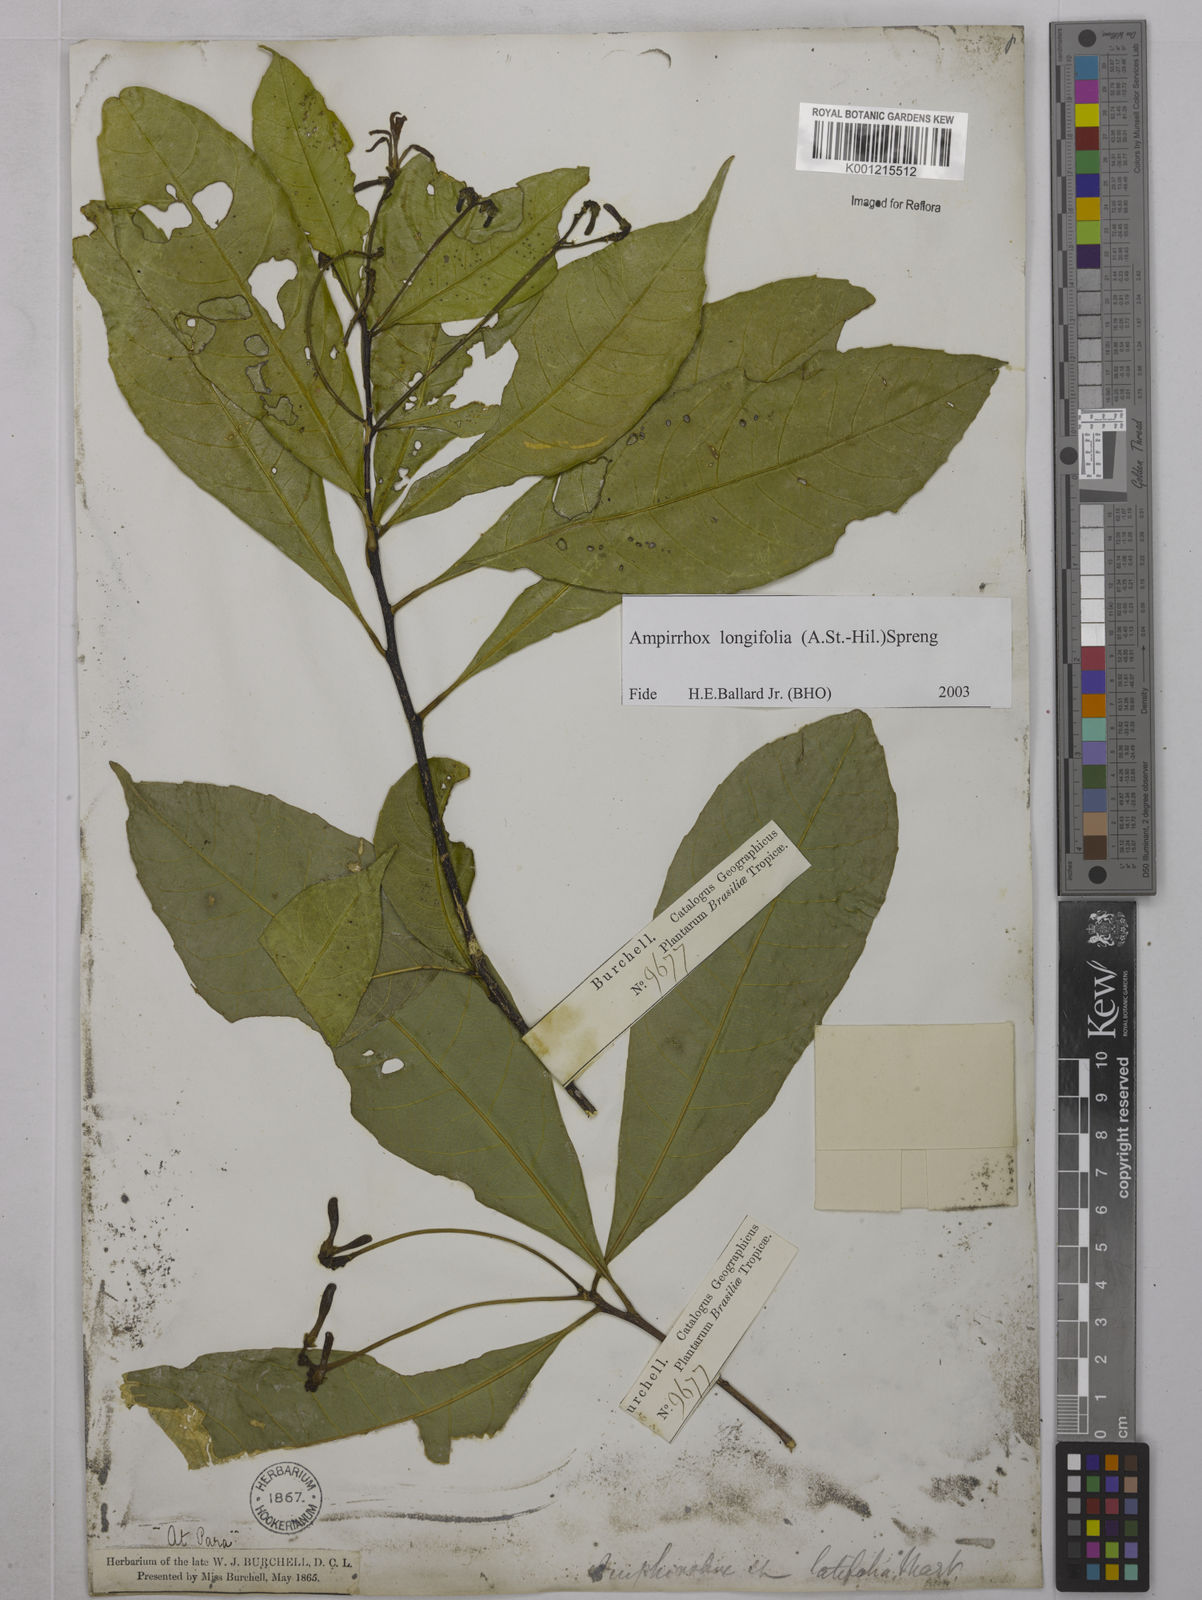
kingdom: Plantae
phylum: Tracheophyta
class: Magnoliopsida
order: Malpighiales
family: Violaceae
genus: Amphirrhox
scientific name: Amphirrhox longifolia
